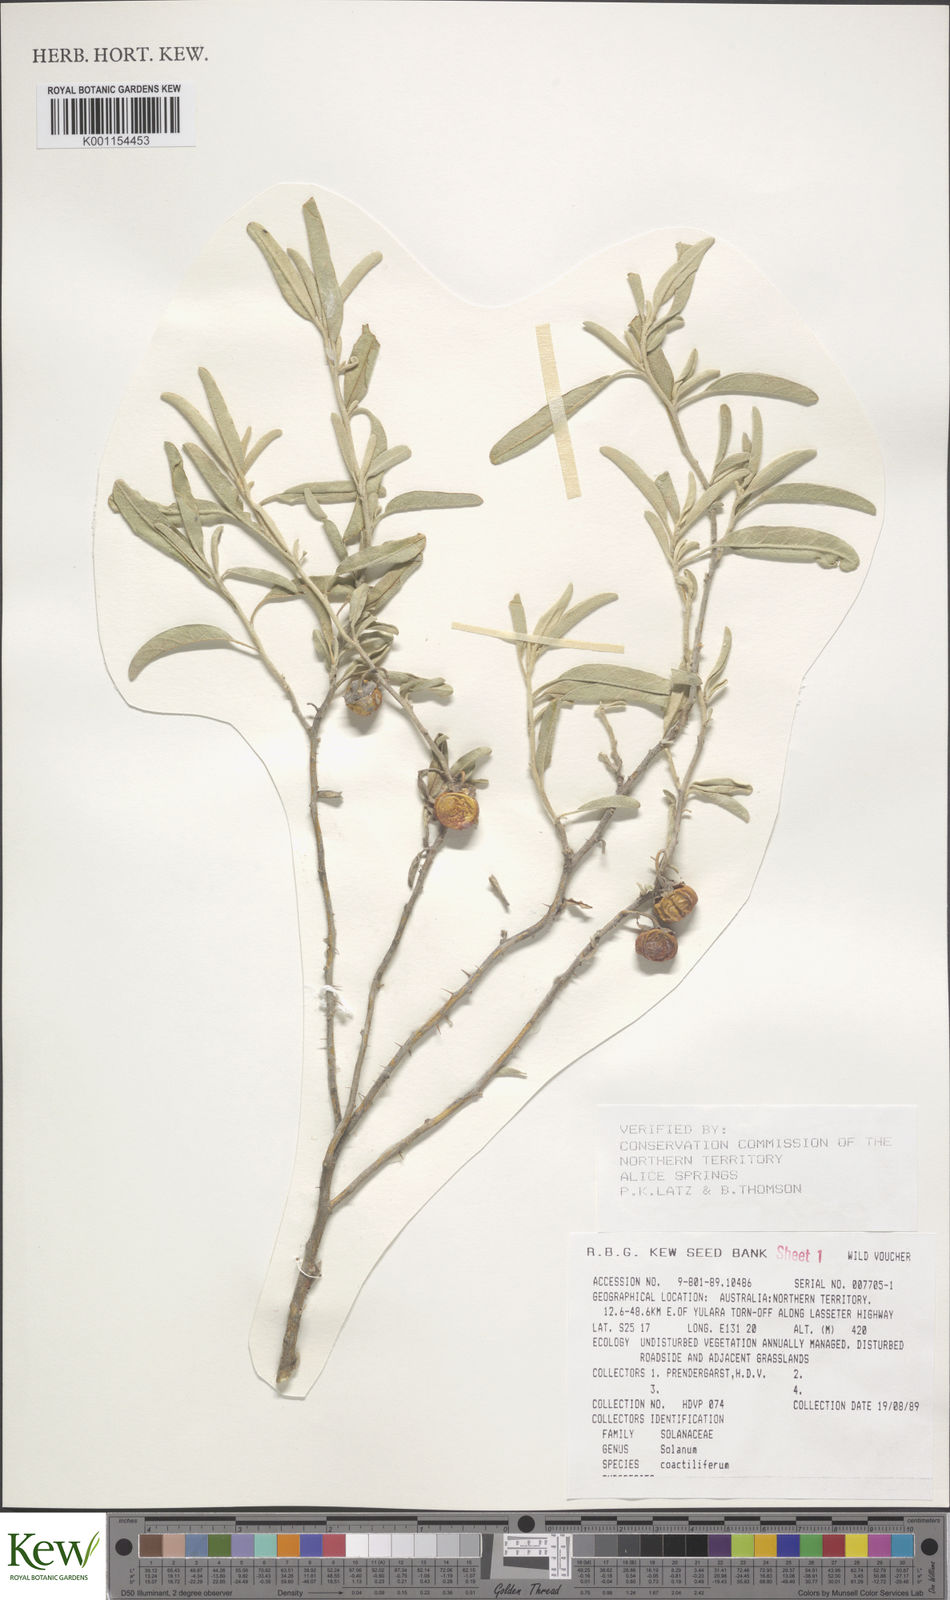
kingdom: Plantae
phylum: Tracheophyta
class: Magnoliopsida
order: Solanales
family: Solanaceae
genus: Solanum
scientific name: Solanum coactiliferum
